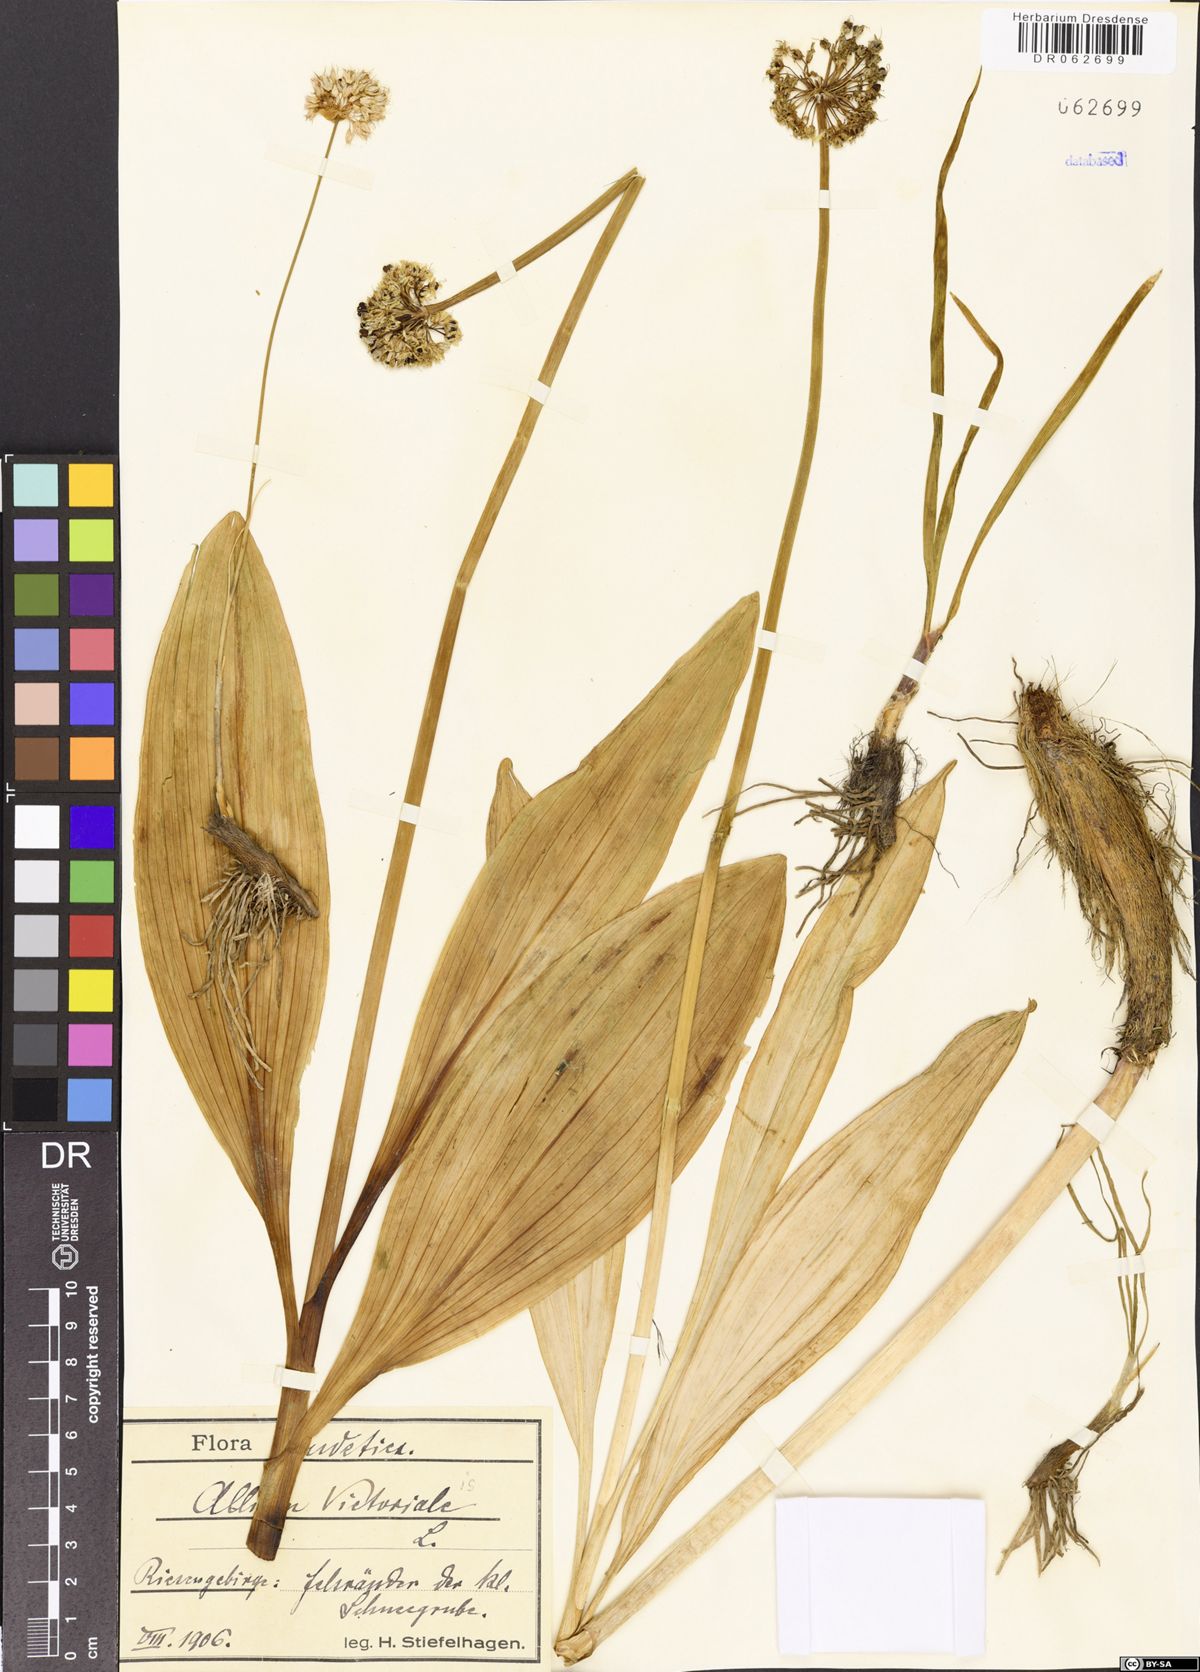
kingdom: Plantae
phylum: Tracheophyta
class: Liliopsida
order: Asparagales
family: Amaryllidaceae
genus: Allium
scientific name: Allium victorialis
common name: Alpine leek
